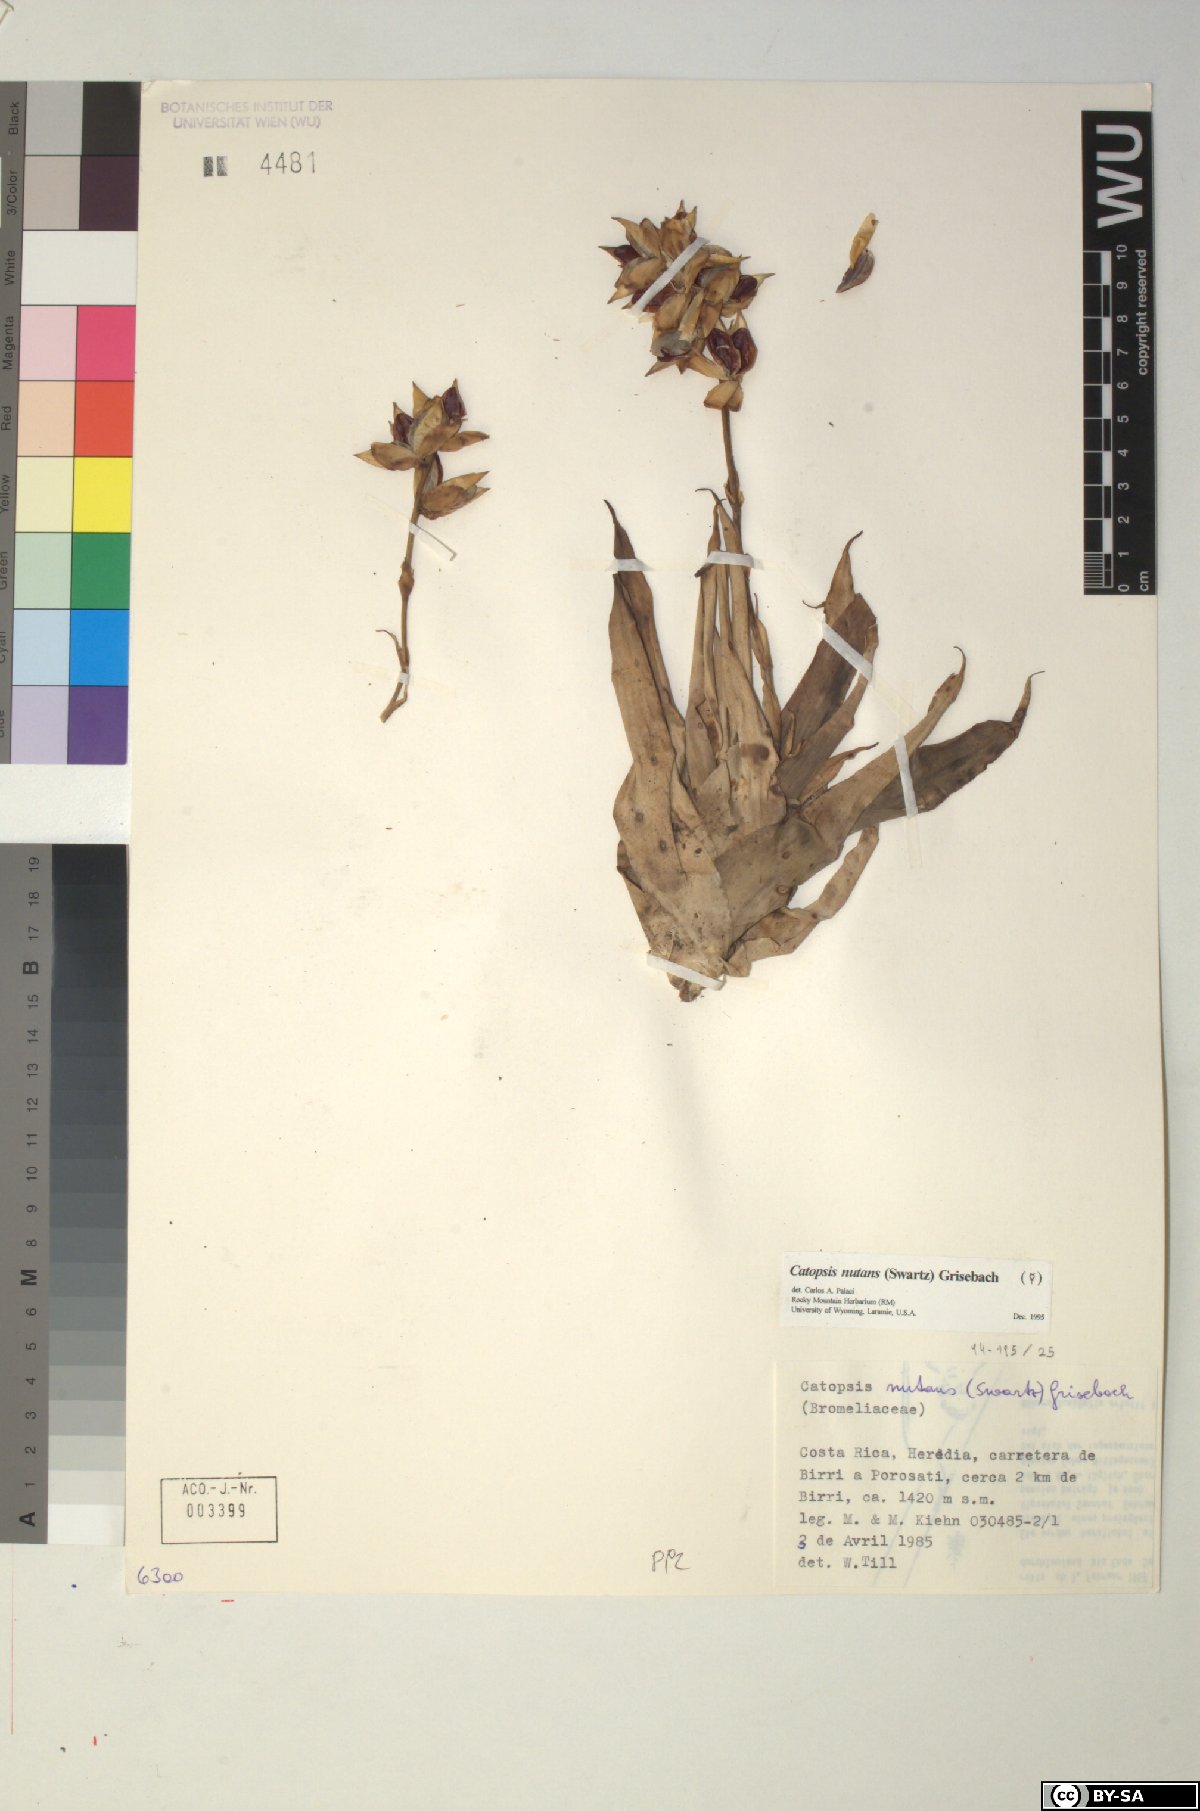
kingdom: Plantae
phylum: Tracheophyta
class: Liliopsida
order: Poales
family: Bromeliaceae
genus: Catopsis
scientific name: Catopsis nutans
